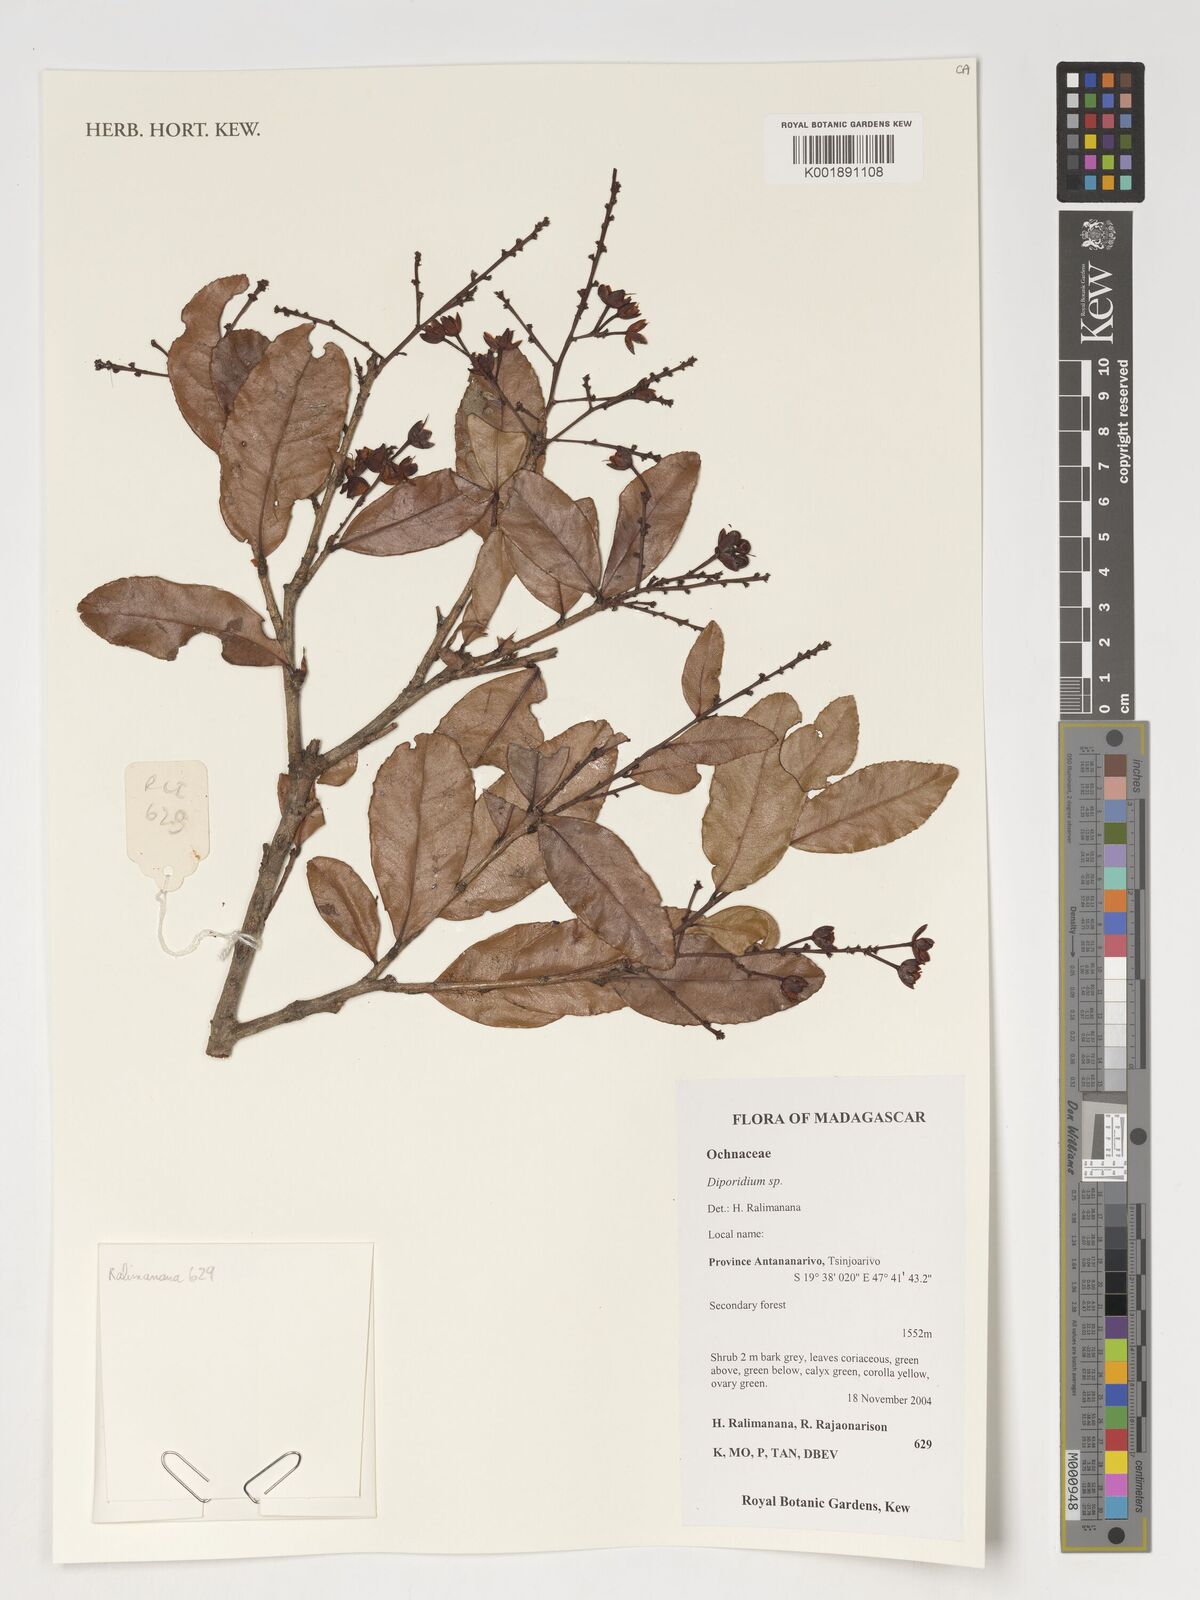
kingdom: Plantae
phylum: Tracheophyta
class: Magnoliopsida
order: Malpighiales
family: Ochnaceae
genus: Ochna
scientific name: Ochna
